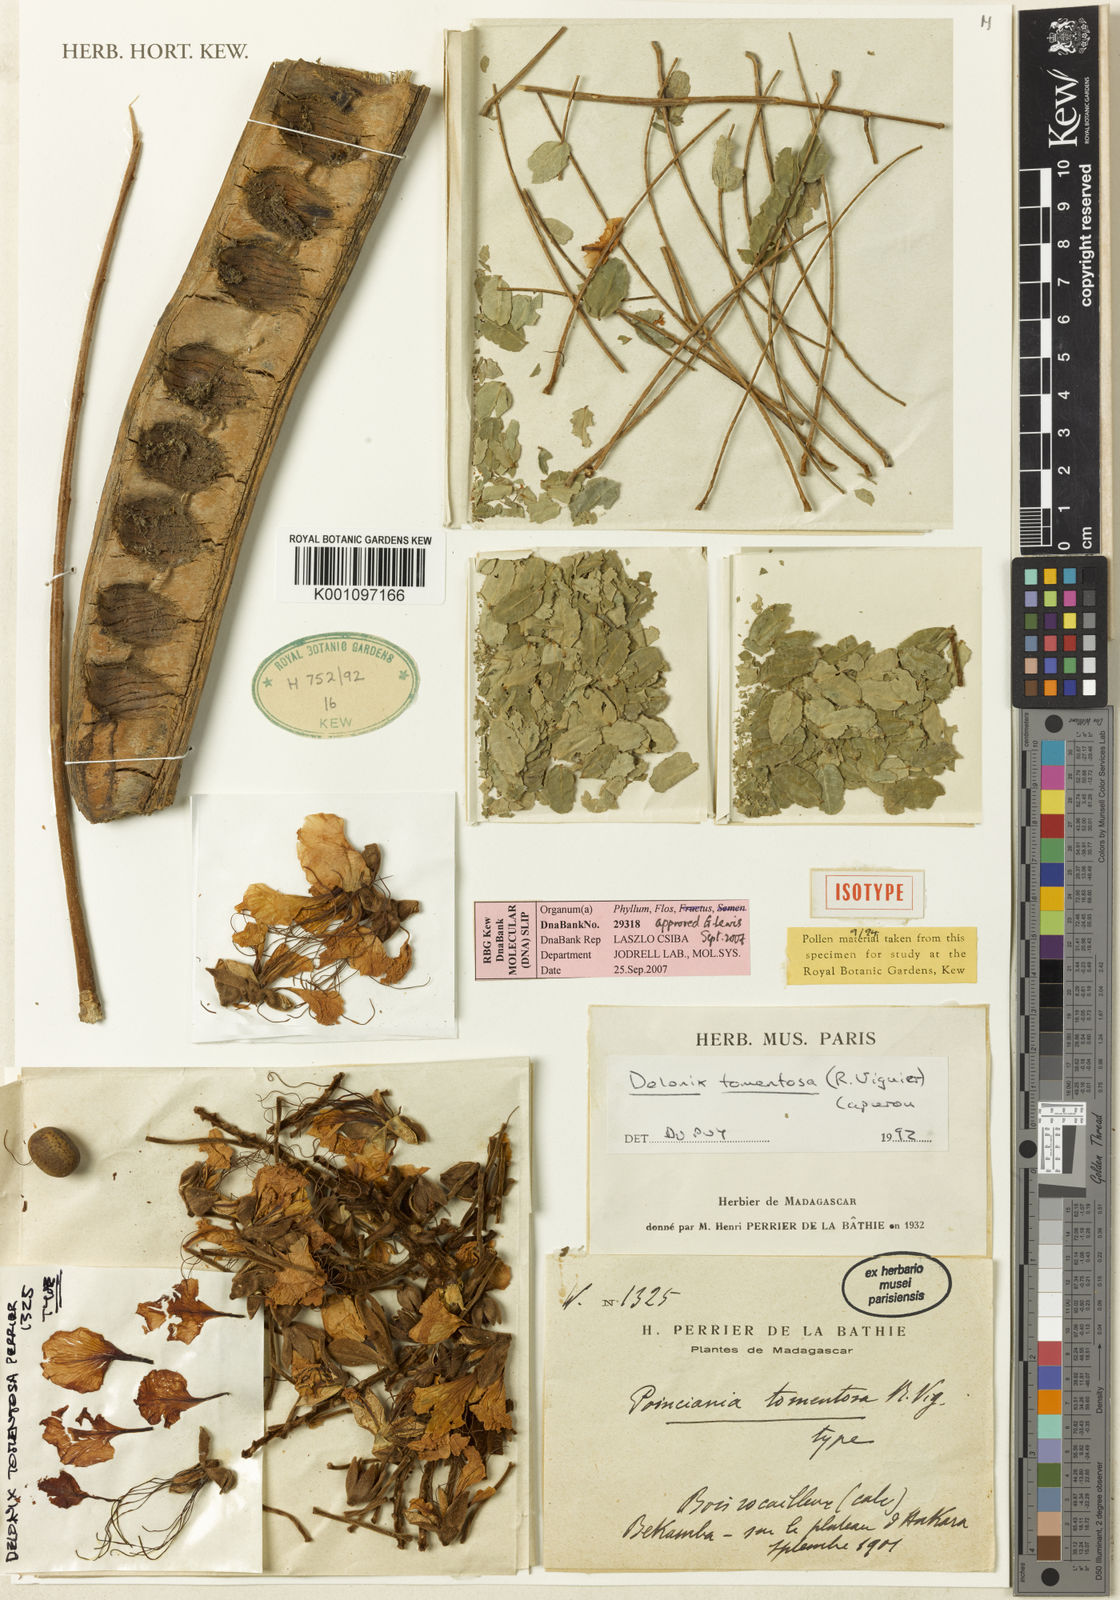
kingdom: Plantae
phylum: Tracheophyta
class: Magnoliopsida
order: Fabales
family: Fabaceae
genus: Delonix
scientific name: Delonix tomentosa
